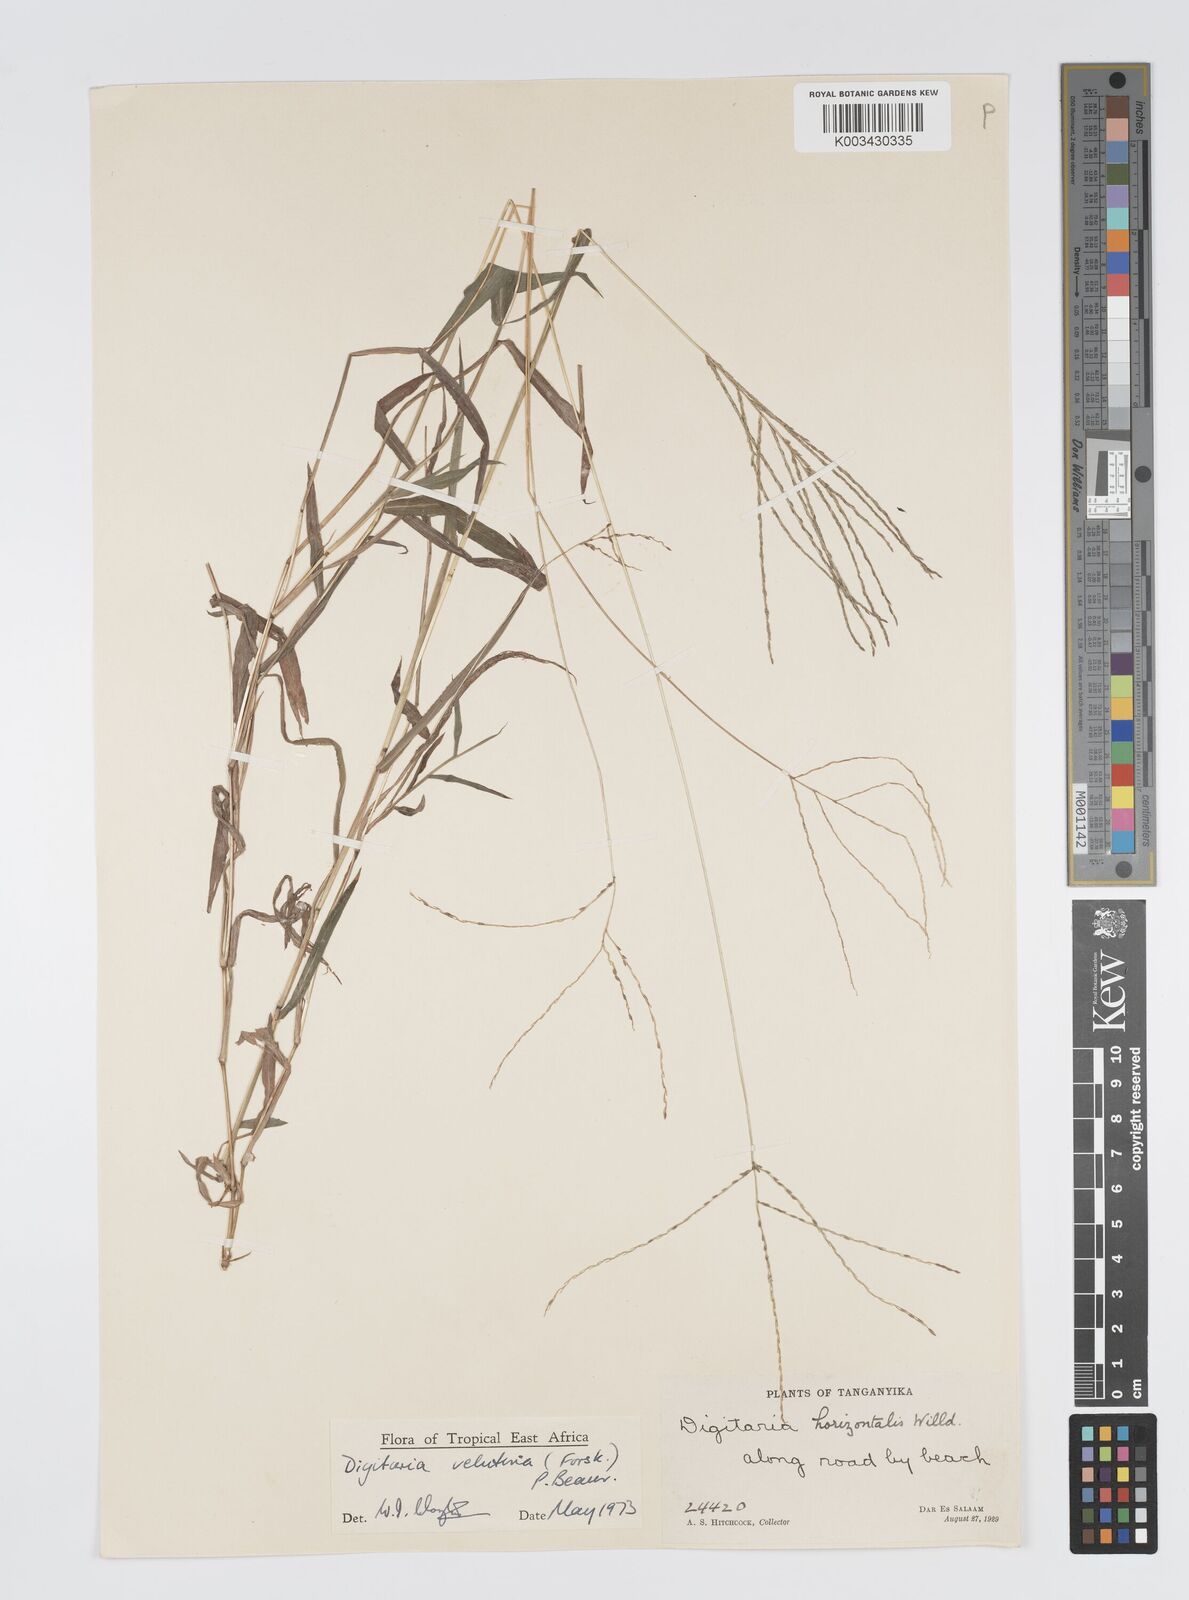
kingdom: Plantae
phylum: Tracheophyta
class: Liliopsida
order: Poales
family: Poaceae
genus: Digitaria
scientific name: Digitaria velutina
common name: Long-plume finger grass
